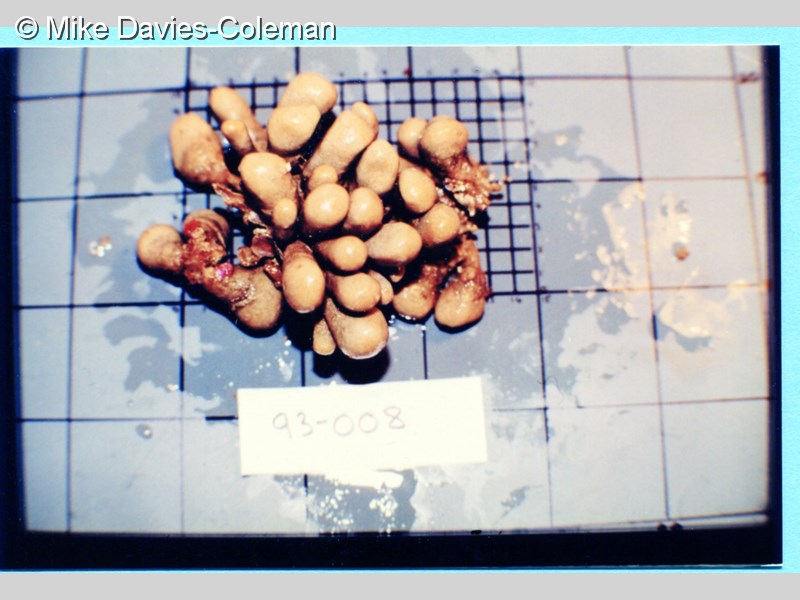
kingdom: Animalia
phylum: Chordata
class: Ascidiacea
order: Aplousobranchia
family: Pseudodistomidae
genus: Pseudodistoma
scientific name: Pseudodistoma africanum
